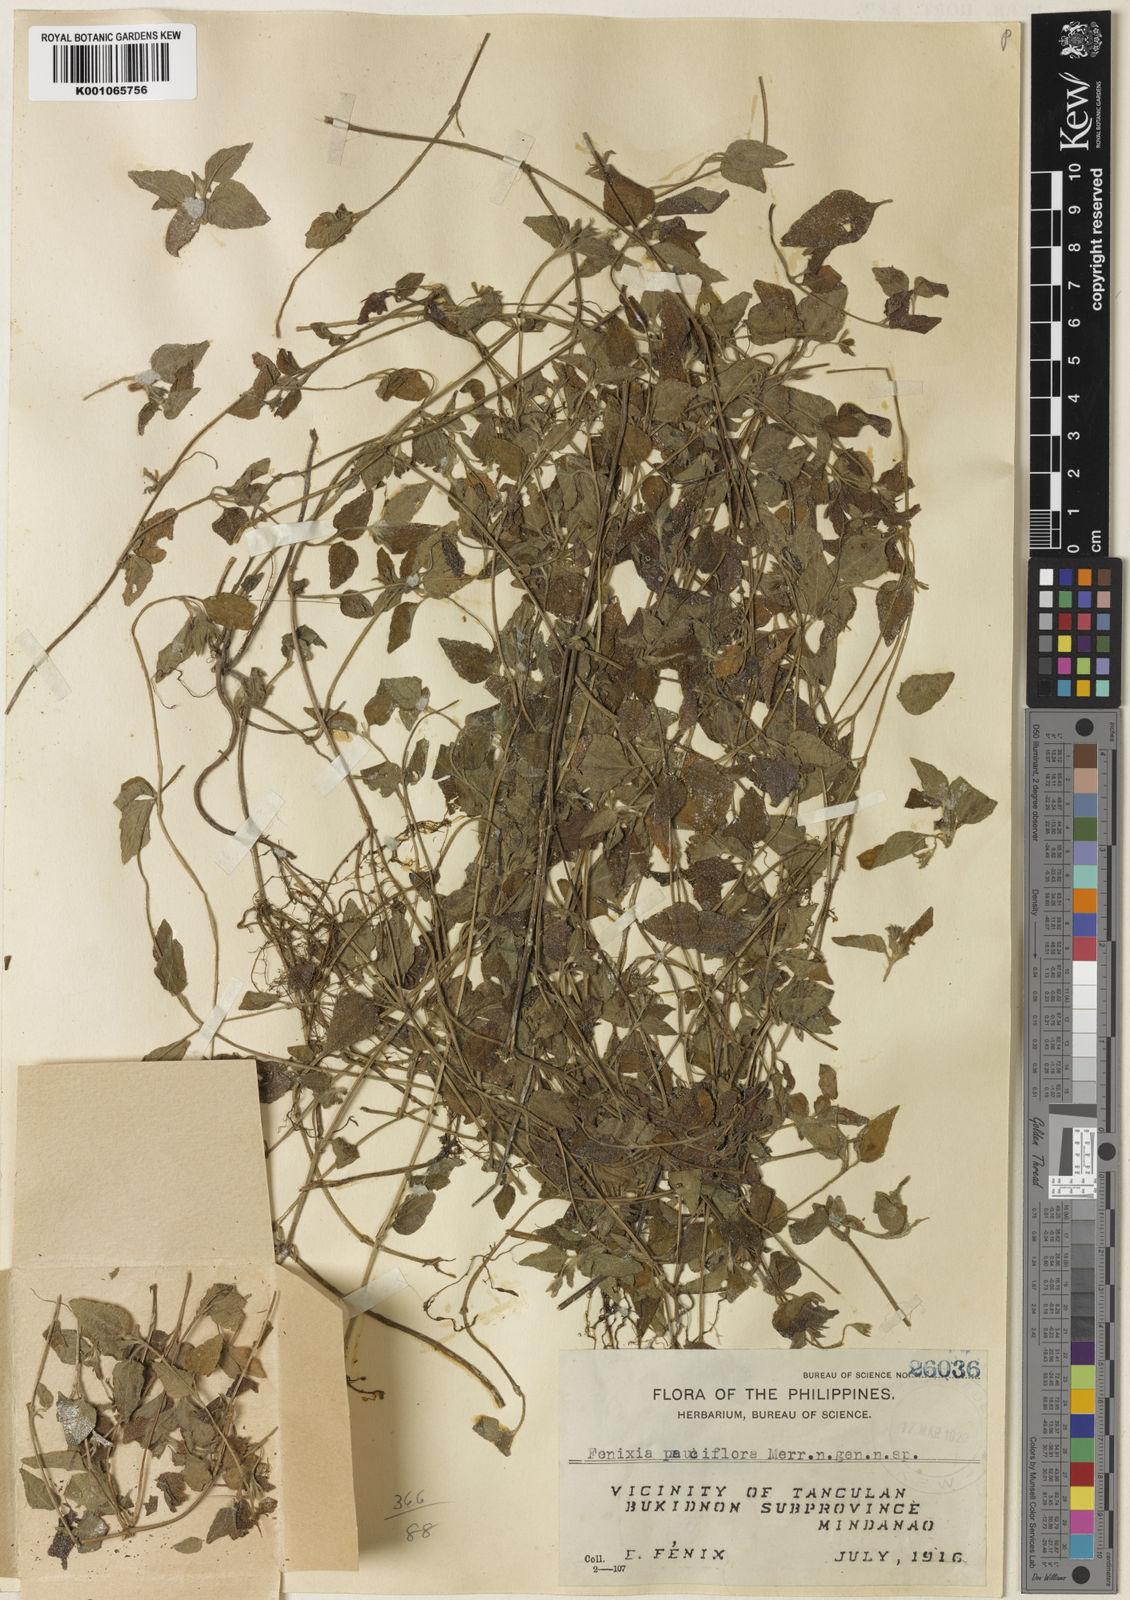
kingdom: Plantae
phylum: Tracheophyta
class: Magnoliopsida
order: Asterales
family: Asteraceae
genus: Fenixia
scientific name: Fenixia pauciflora
